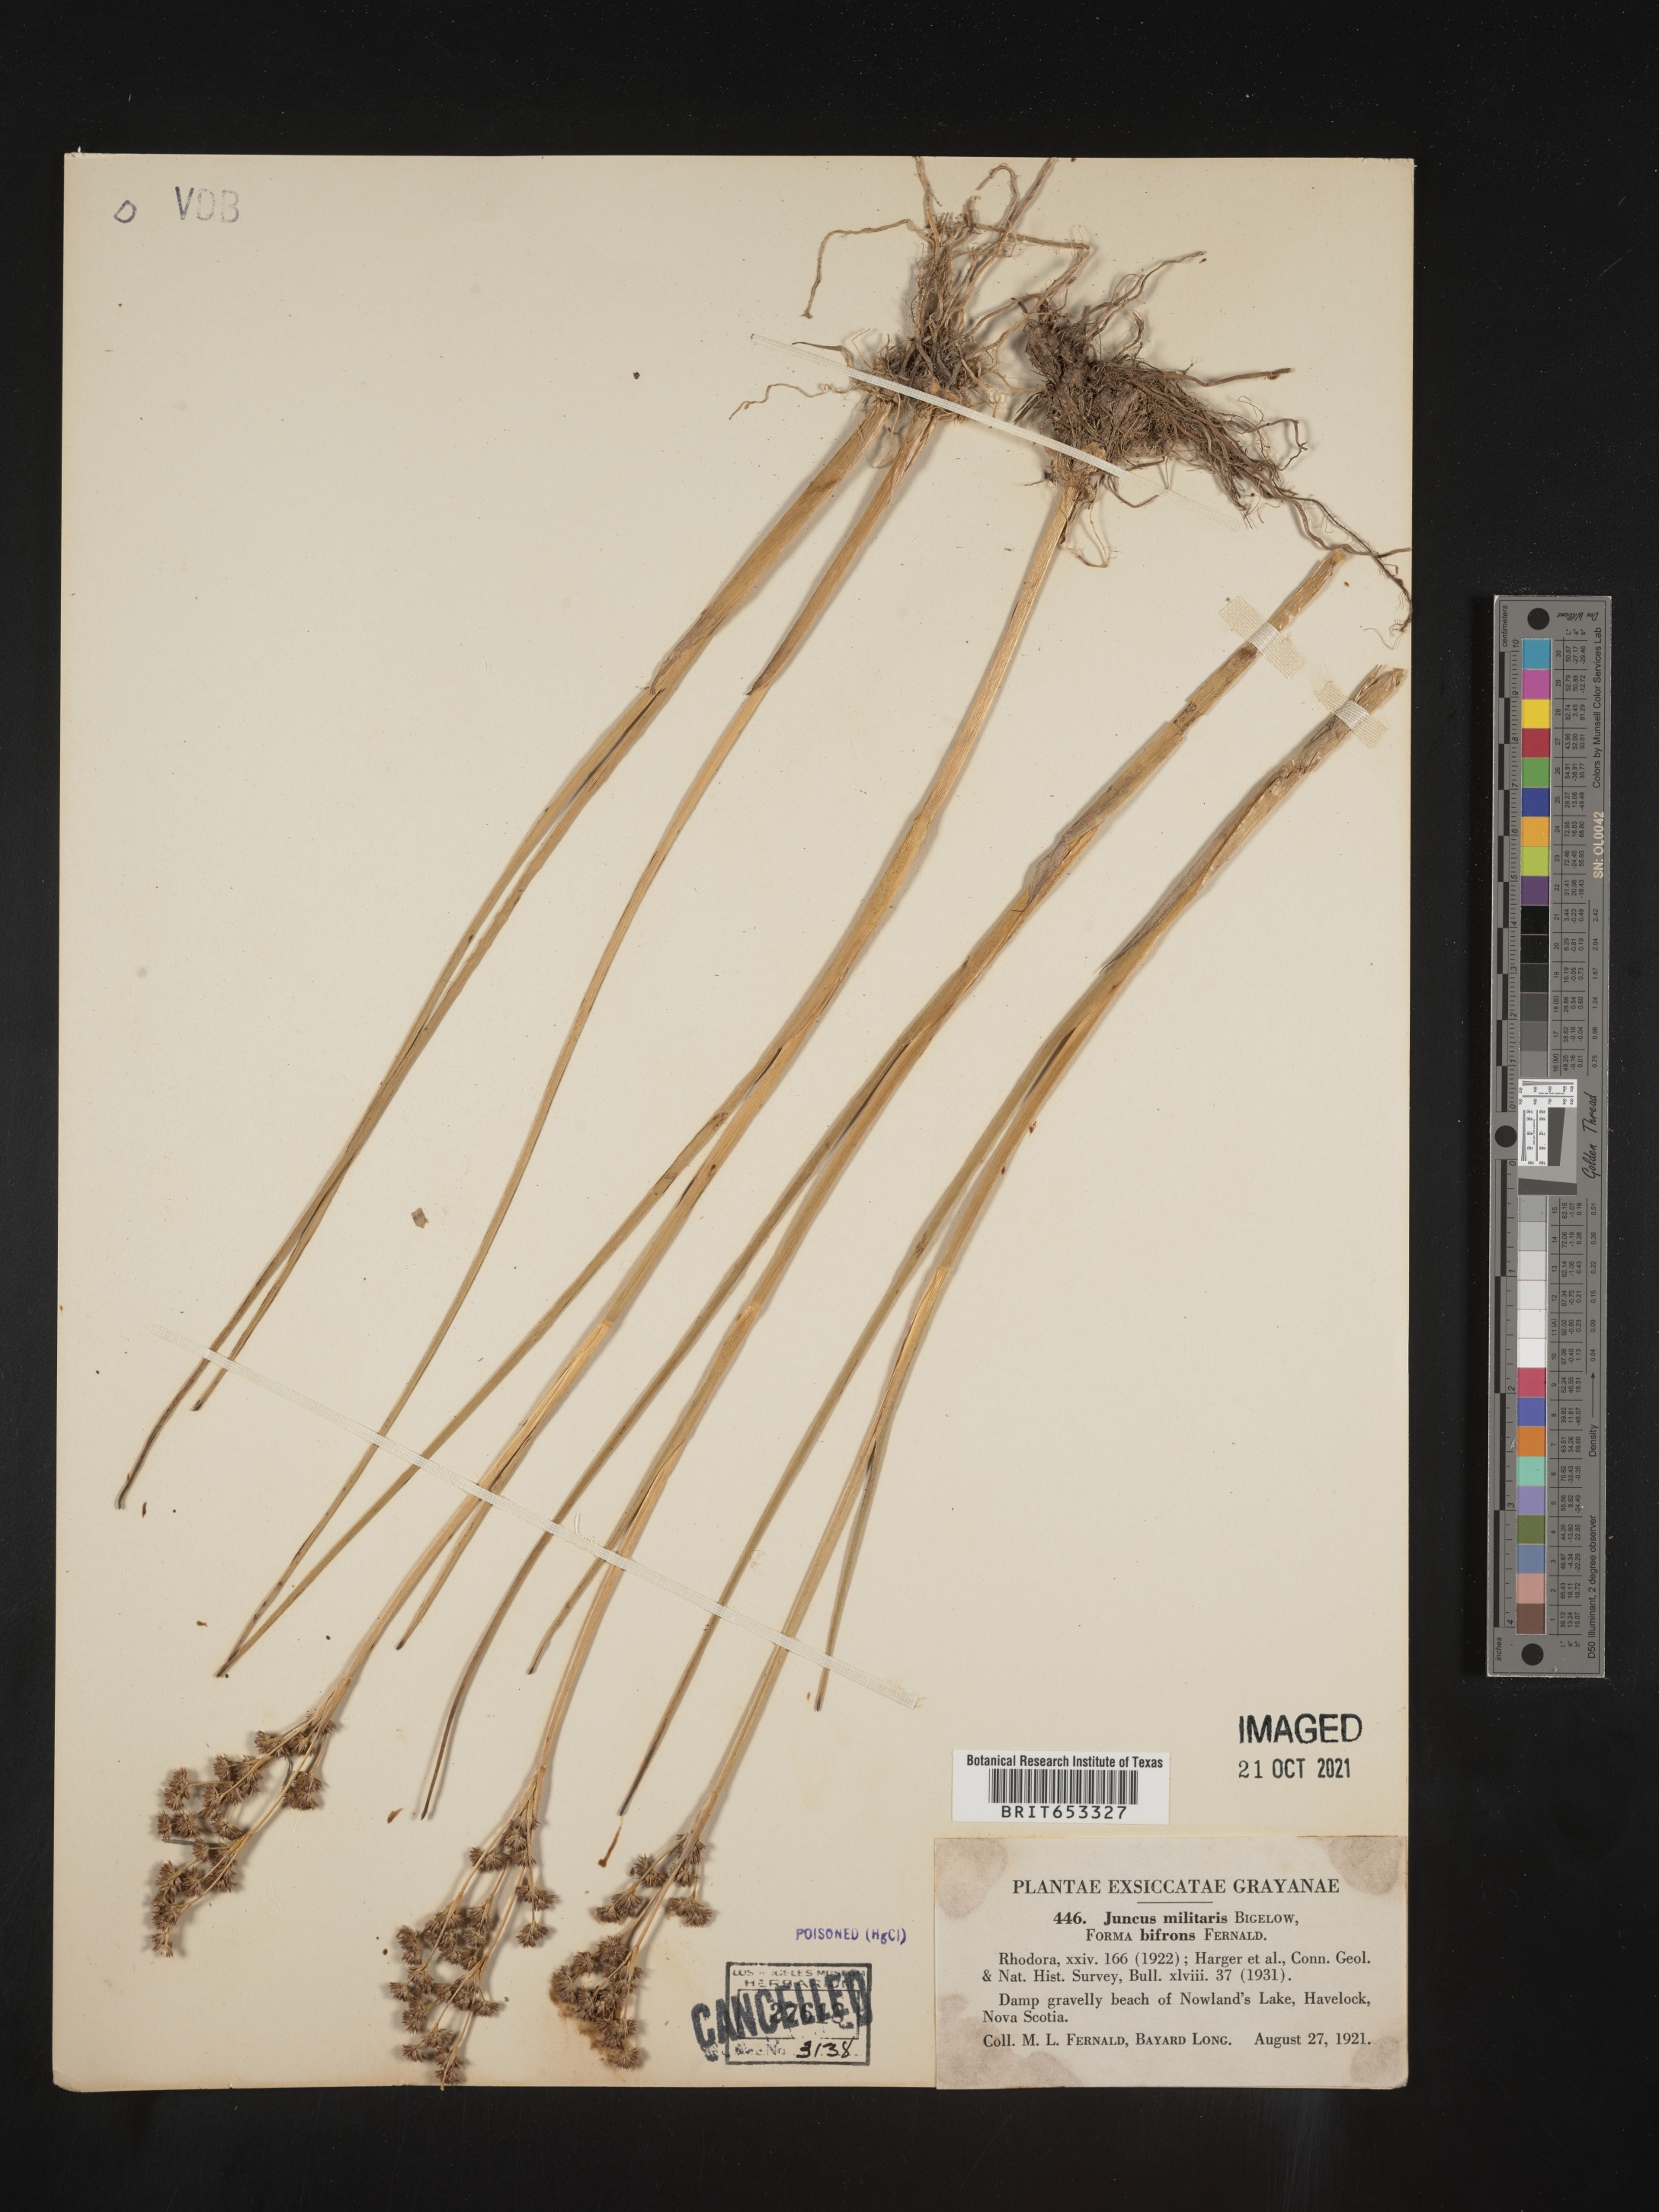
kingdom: Plantae
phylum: Tracheophyta
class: Liliopsida
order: Poales
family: Juncaceae
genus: Juncus
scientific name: Juncus militaris
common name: Bayonet rush
